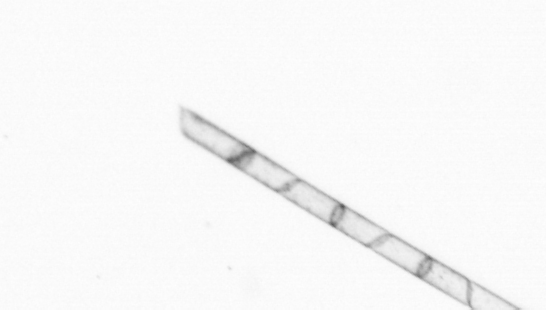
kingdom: Chromista
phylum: Ochrophyta
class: Bacillariophyceae
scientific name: Bacillariophyceae
